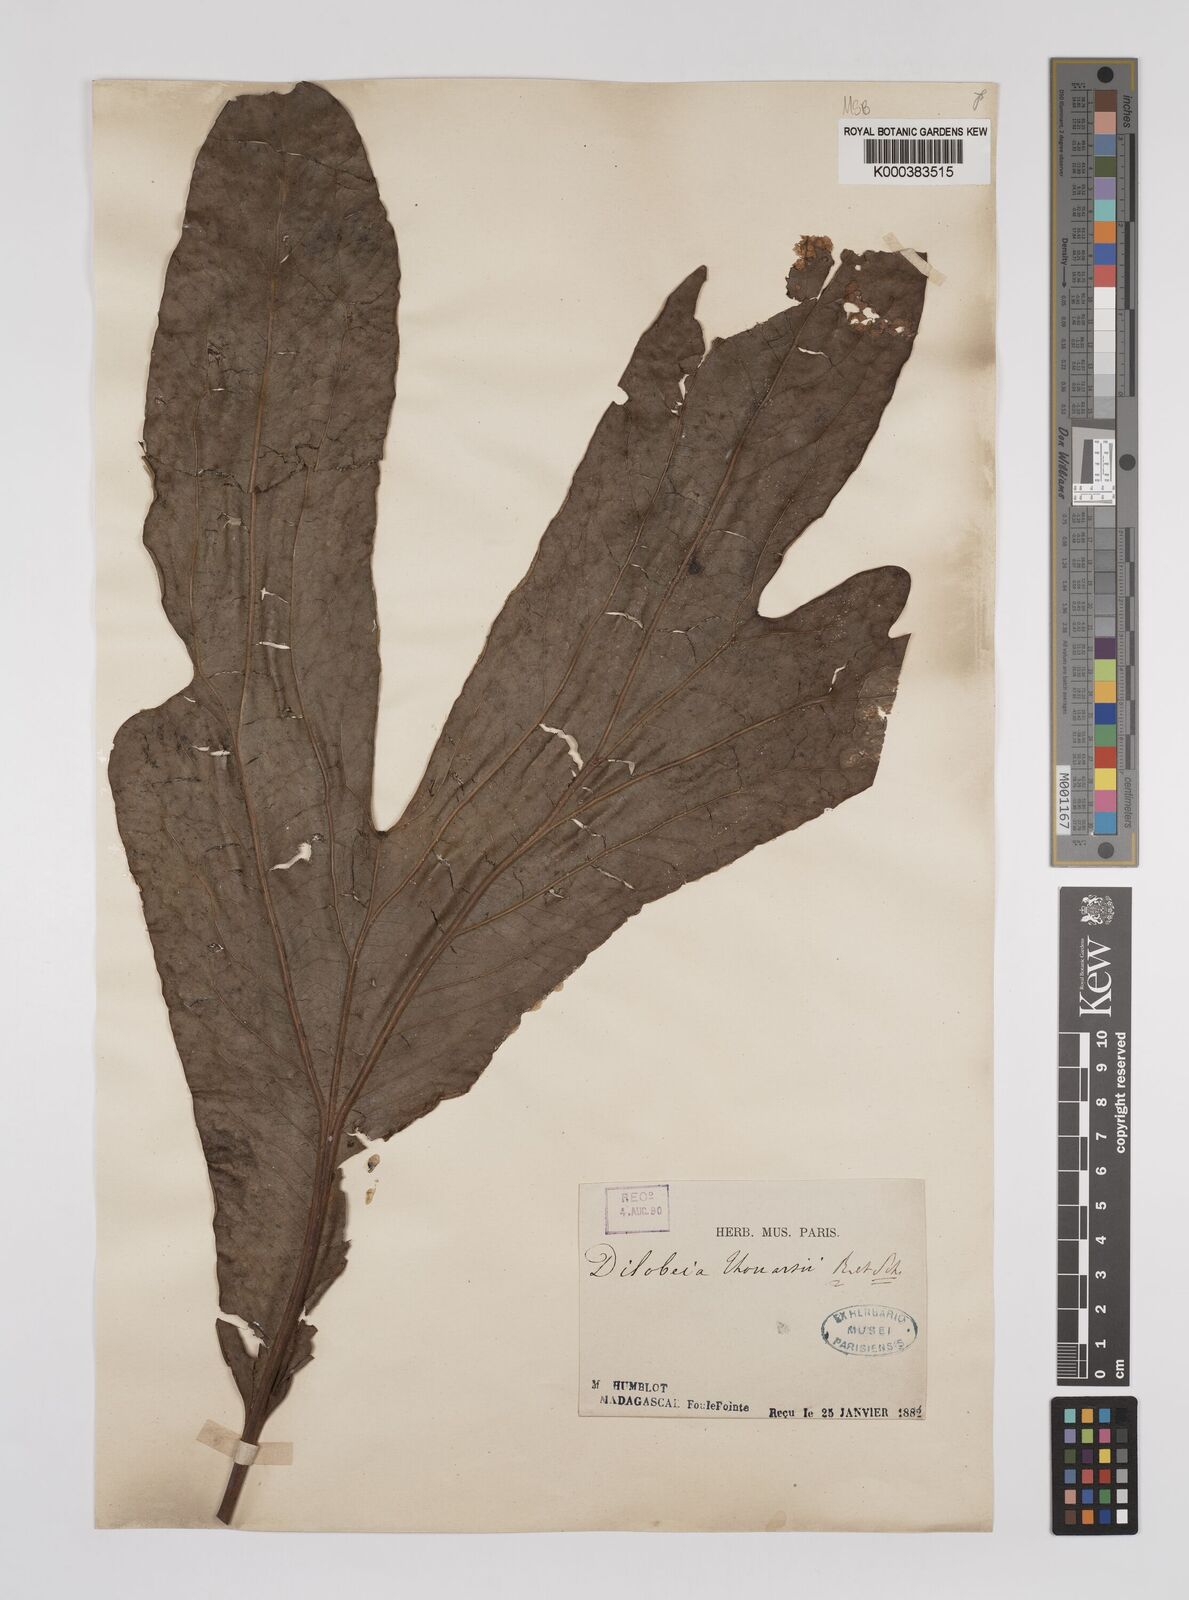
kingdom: Plantae
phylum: Tracheophyta
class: Magnoliopsida
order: Proteales
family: Proteaceae
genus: Dilobeia
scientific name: Dilobeia thouarsii
